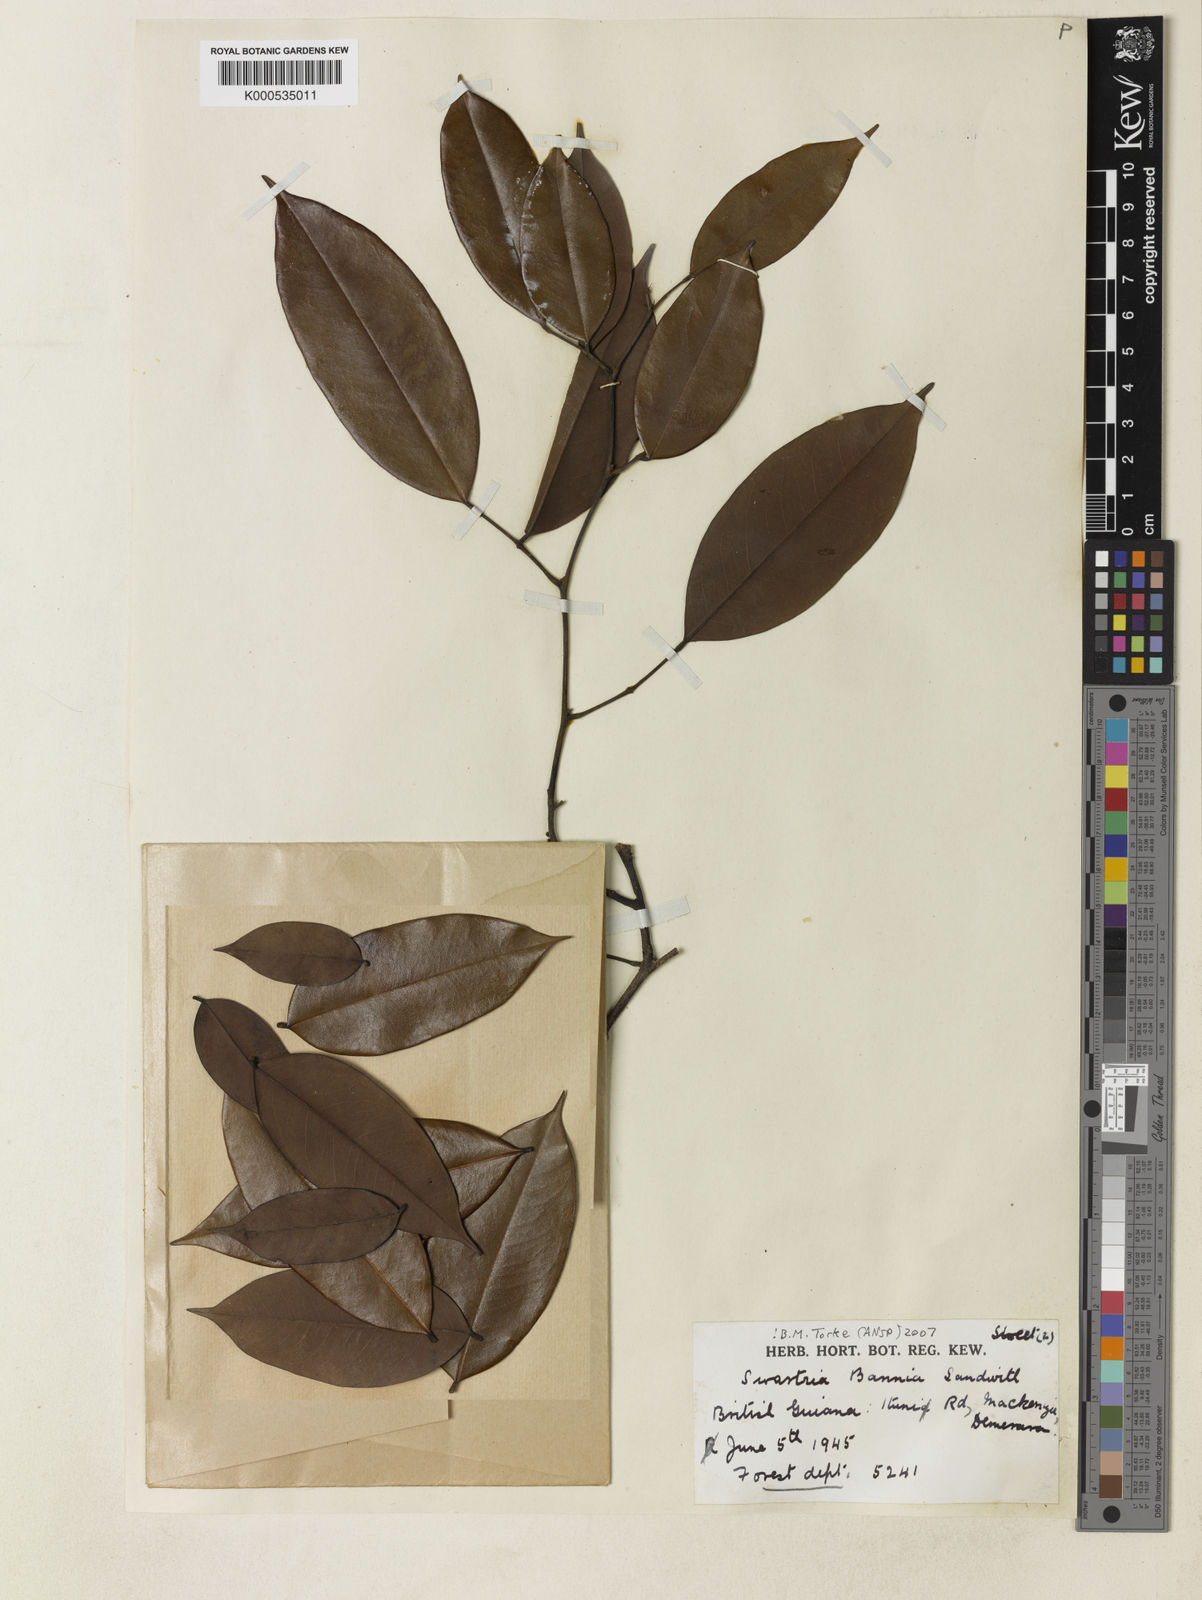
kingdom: Plantae
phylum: Tracheophyta
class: Magnoliopsida
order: Fabales
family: Fabaceae
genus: Swartzia
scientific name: Swartzia bannia
